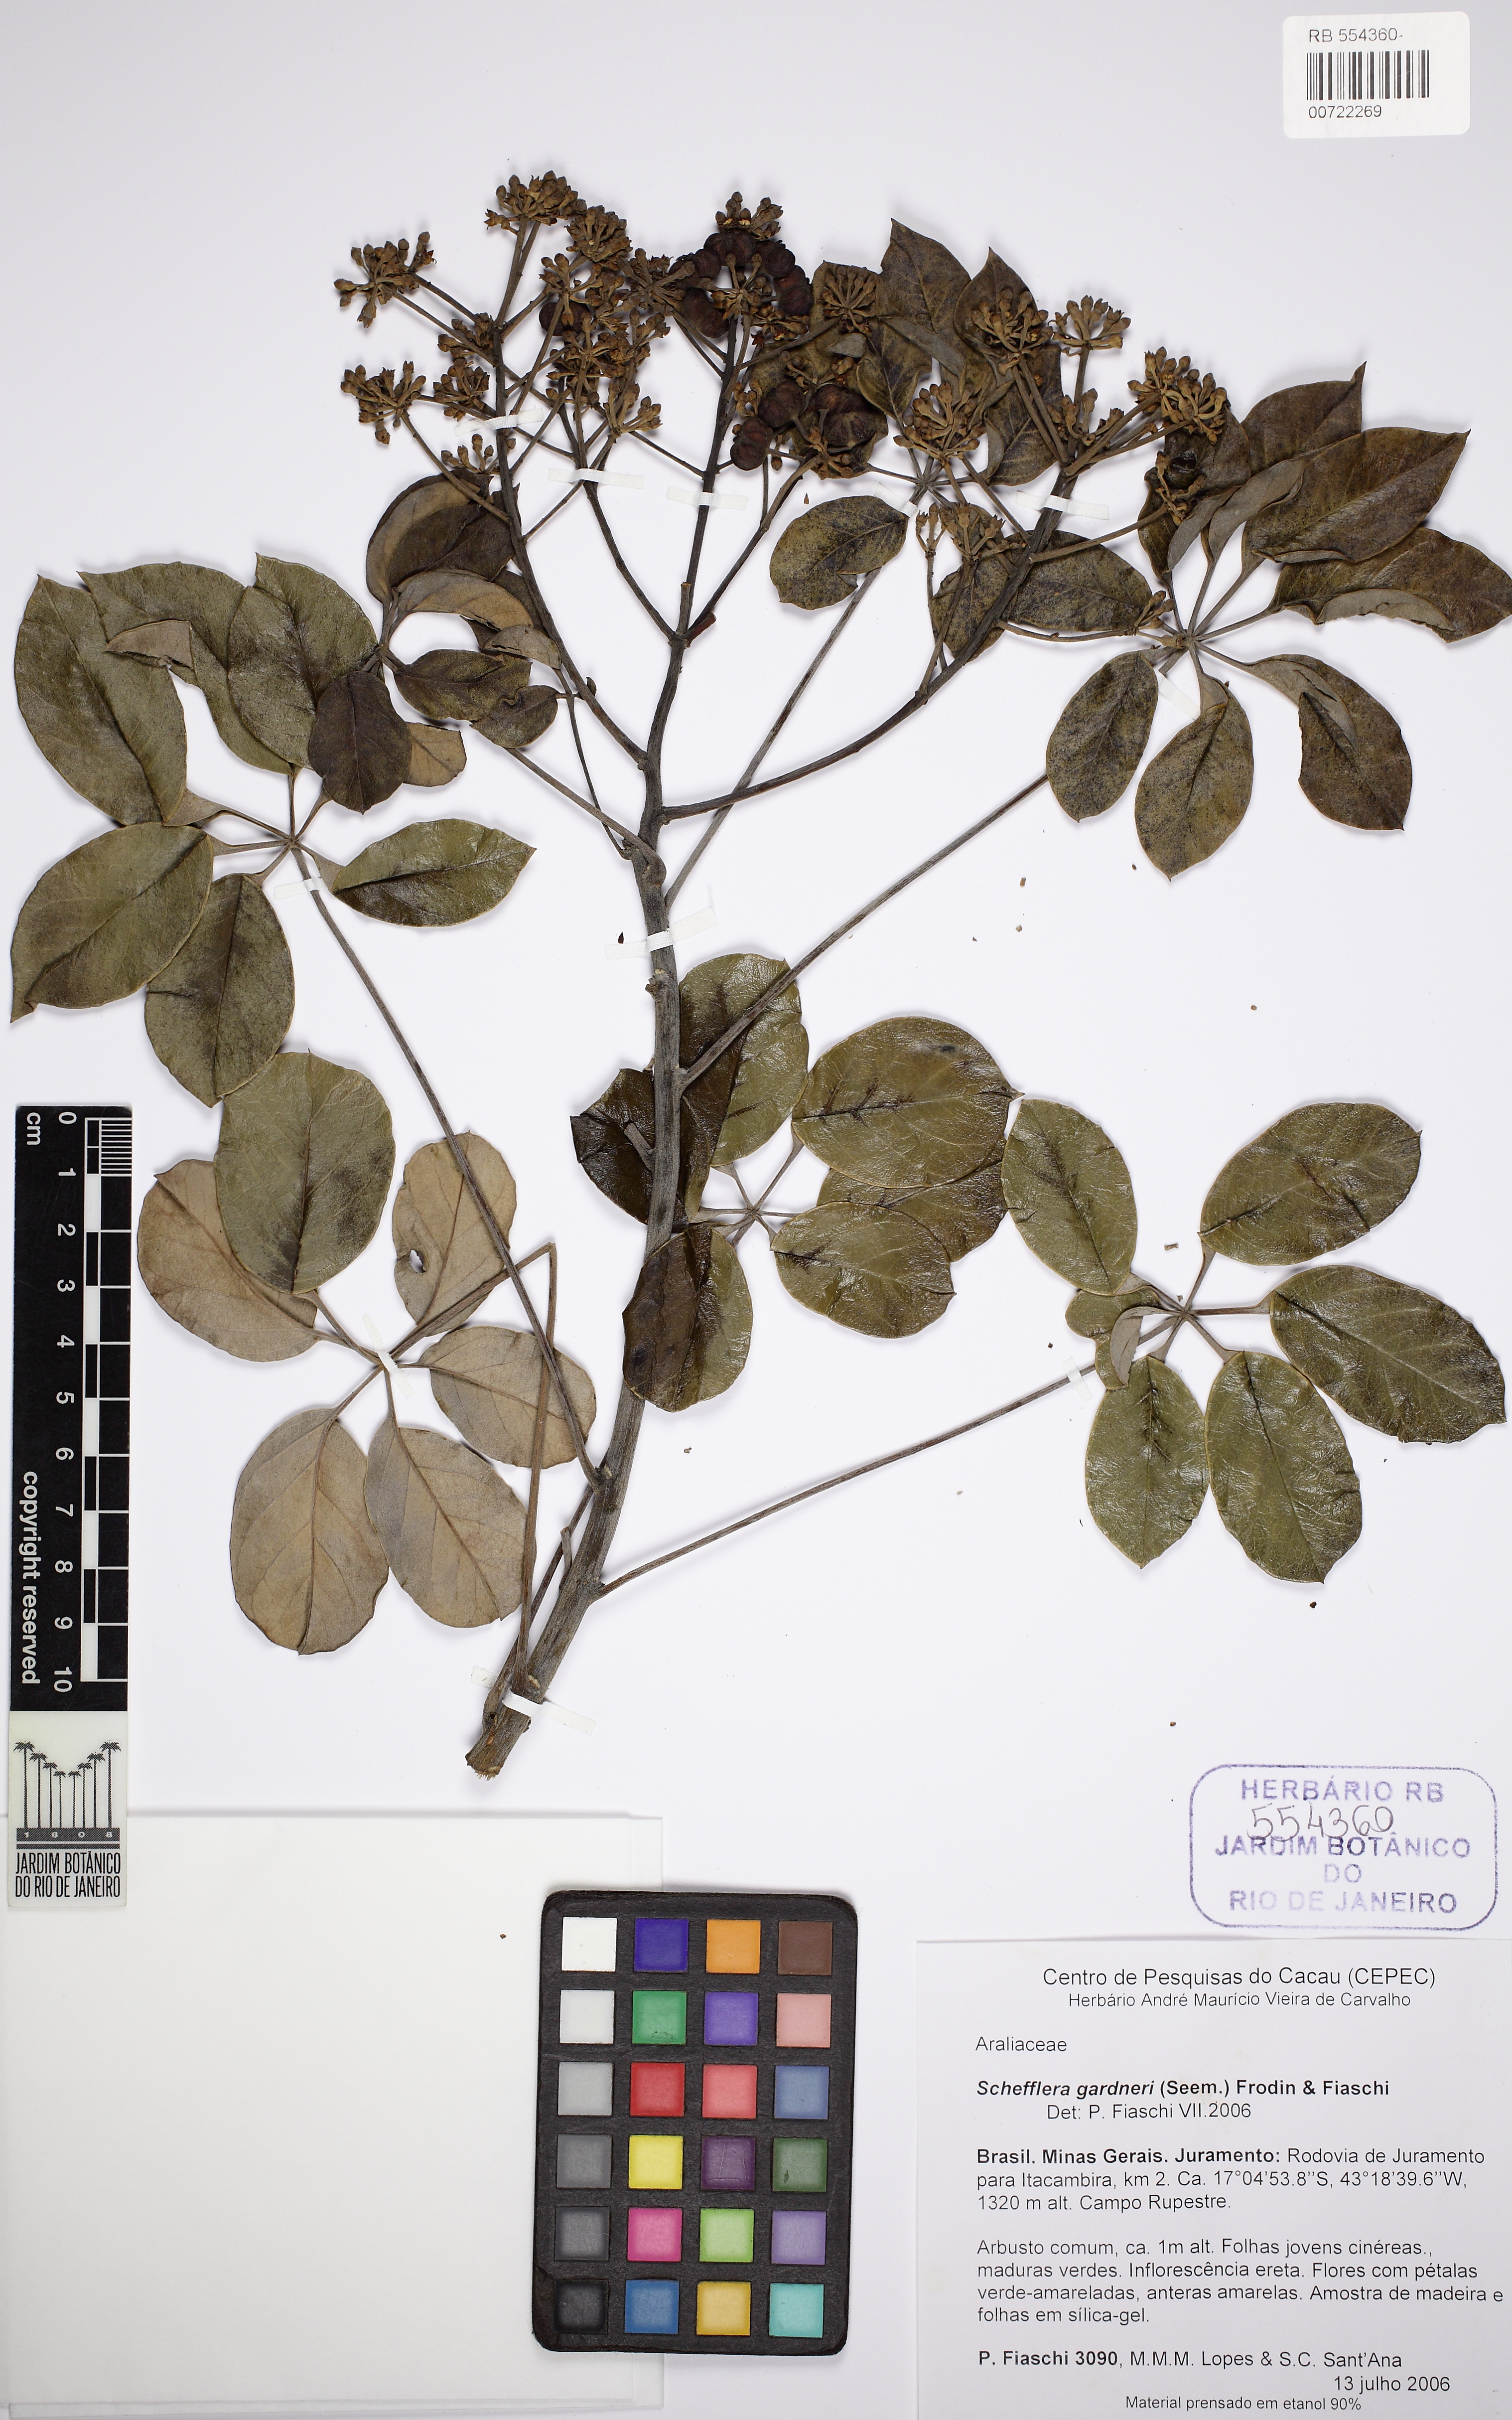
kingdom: Plantae
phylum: Tracheophyta
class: Magnoliopsida
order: Apiales
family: Araliaceae
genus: Didymopanax
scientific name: Didymopanax gardneri
